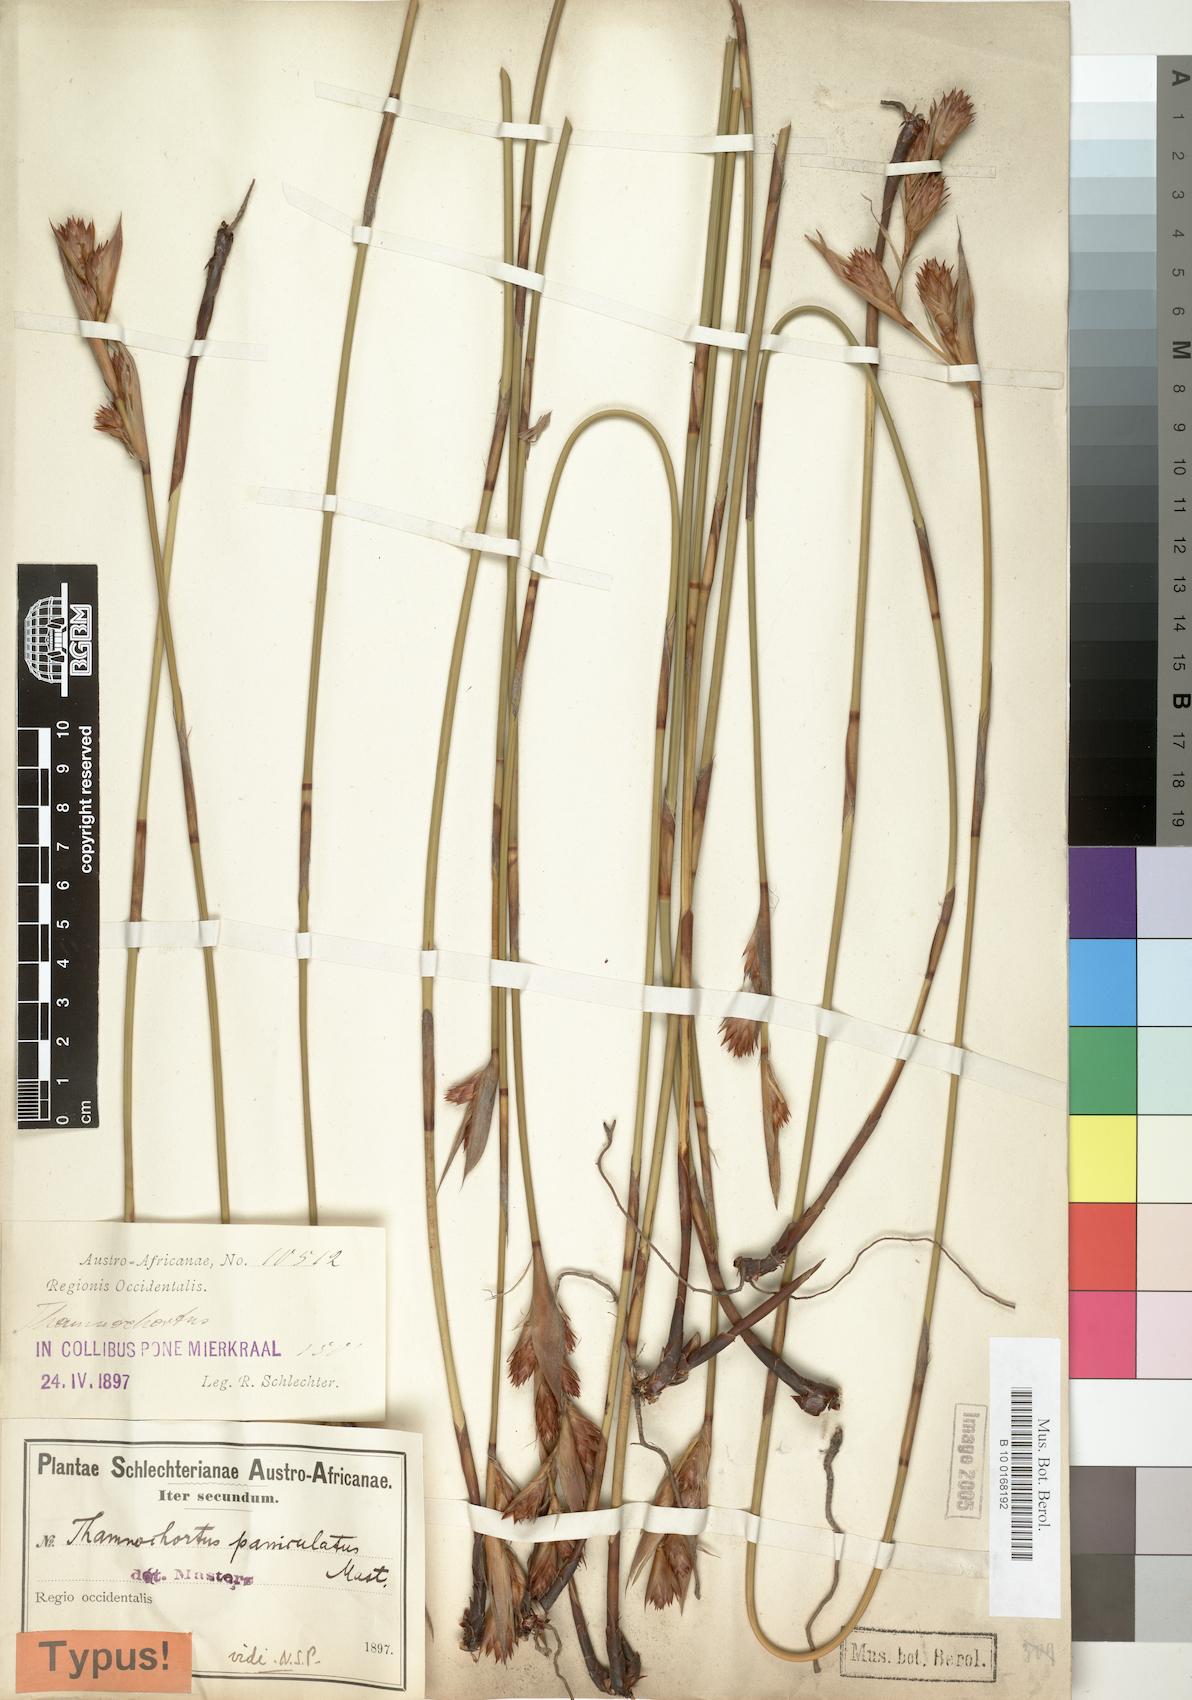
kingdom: Plantae
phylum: Tracheophyta
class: Liliopsida
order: Poales
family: Restionaceae
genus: Thamnochortus
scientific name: Thamnochortus paniculatus
